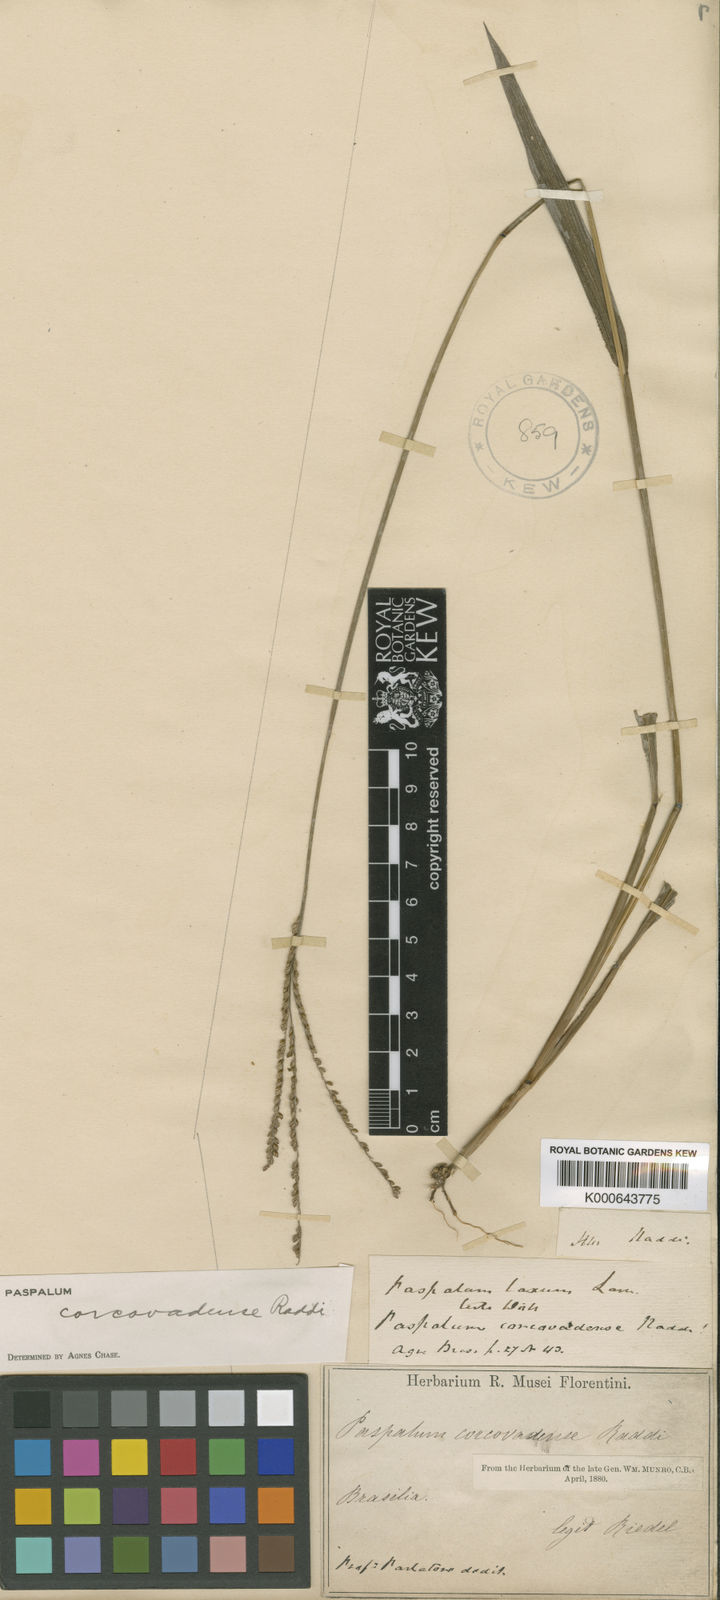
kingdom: Plantae
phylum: Tracheophyta
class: Liliopsida
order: Poales
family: Poaceae
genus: Paspalum
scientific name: Paspalum corcovadense
